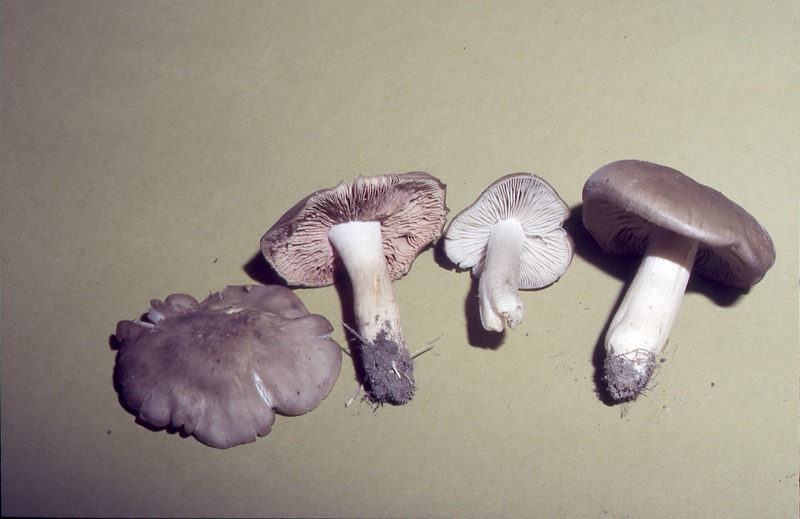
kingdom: Fungi
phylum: Basidiomycota
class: Agaricomycetes
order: Agaricales
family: Entolomataceae
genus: Entoloma
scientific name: Entoloma lividoalbum
